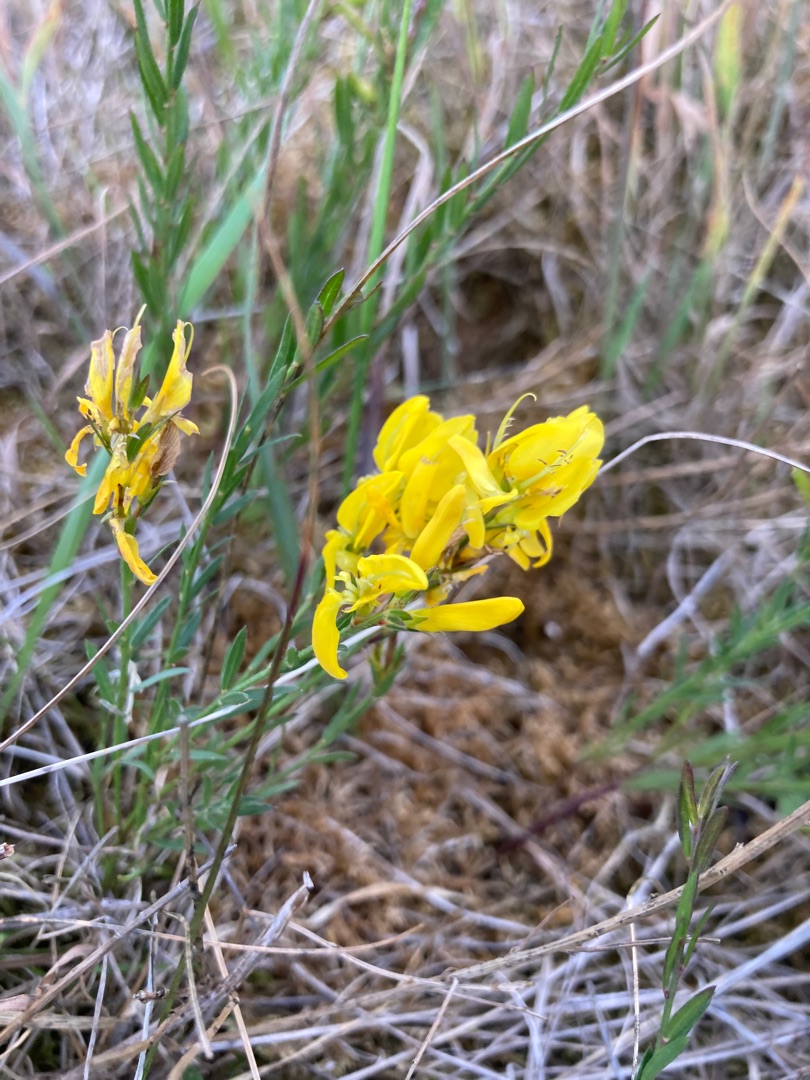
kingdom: Plantae
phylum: Tracheophyta
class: Magnoliopsida
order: Fabales
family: Fabaceae
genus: Genista
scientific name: Genista tinctoria
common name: Farve-visse
